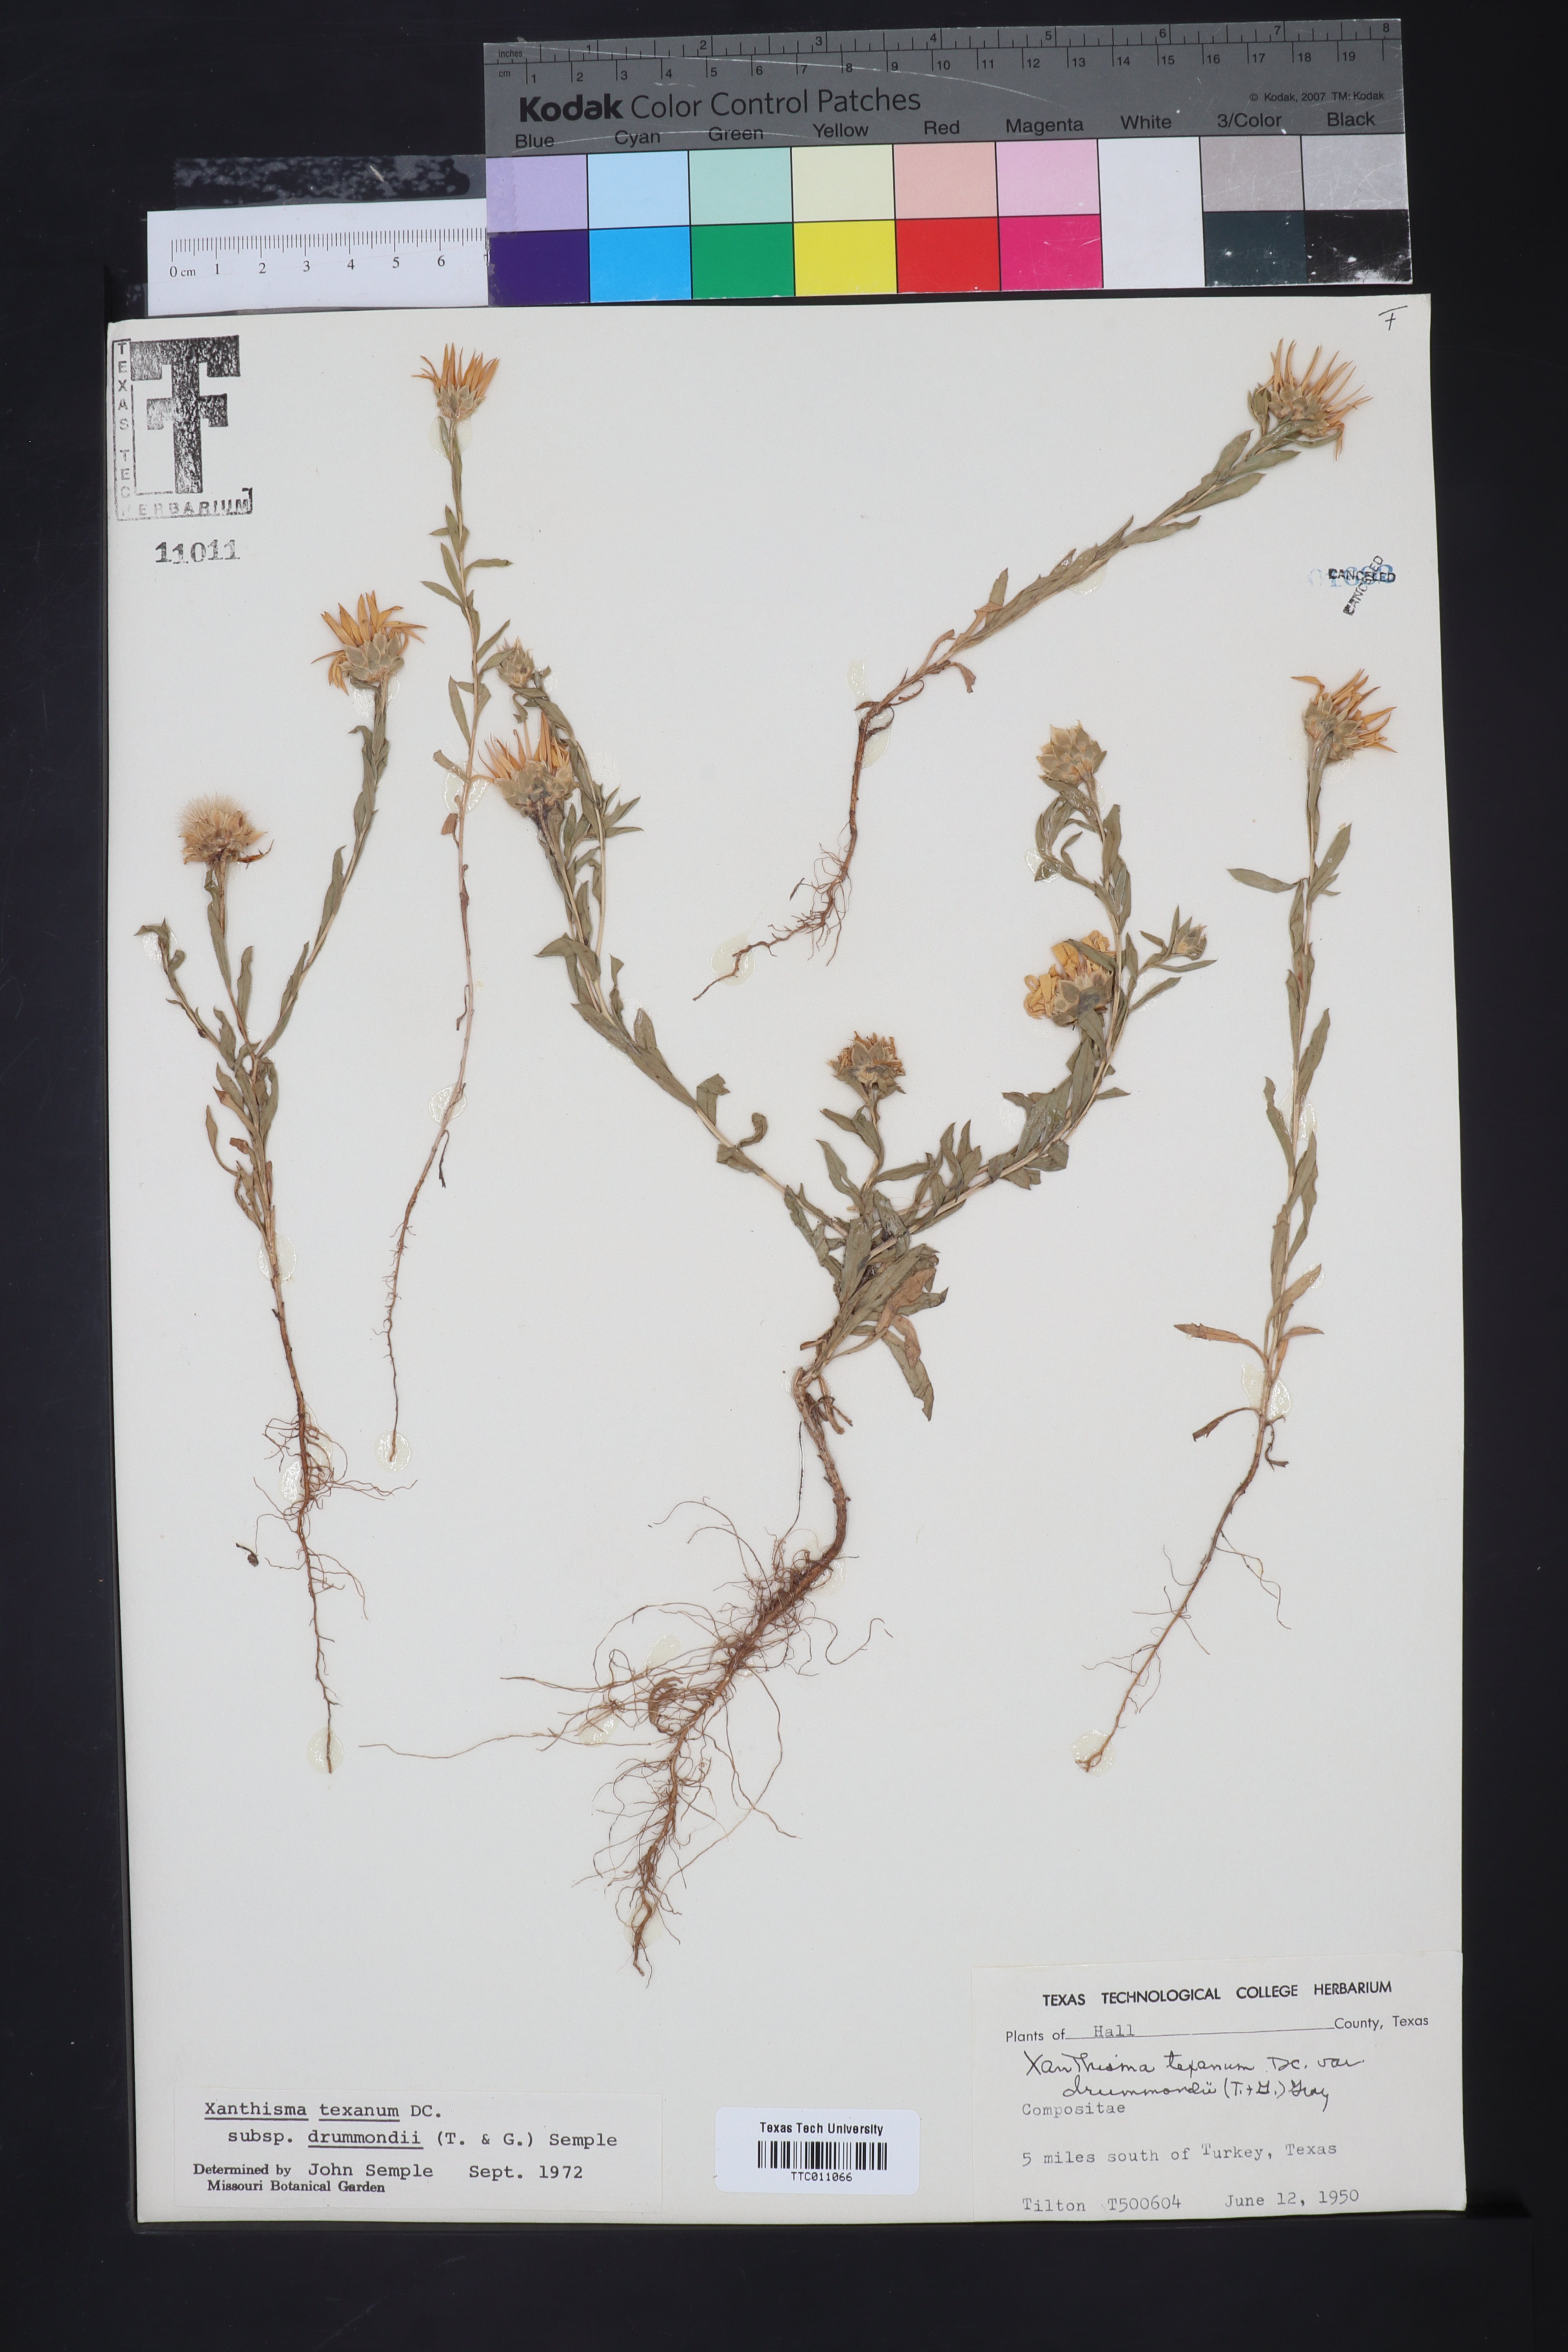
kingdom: Plantae
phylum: Tracheophyta
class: Magnoliopsida
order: Asterales
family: Asteraceae
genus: Xanthisma
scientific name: Xanthisma texanum
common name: Texas sleepy daisy
